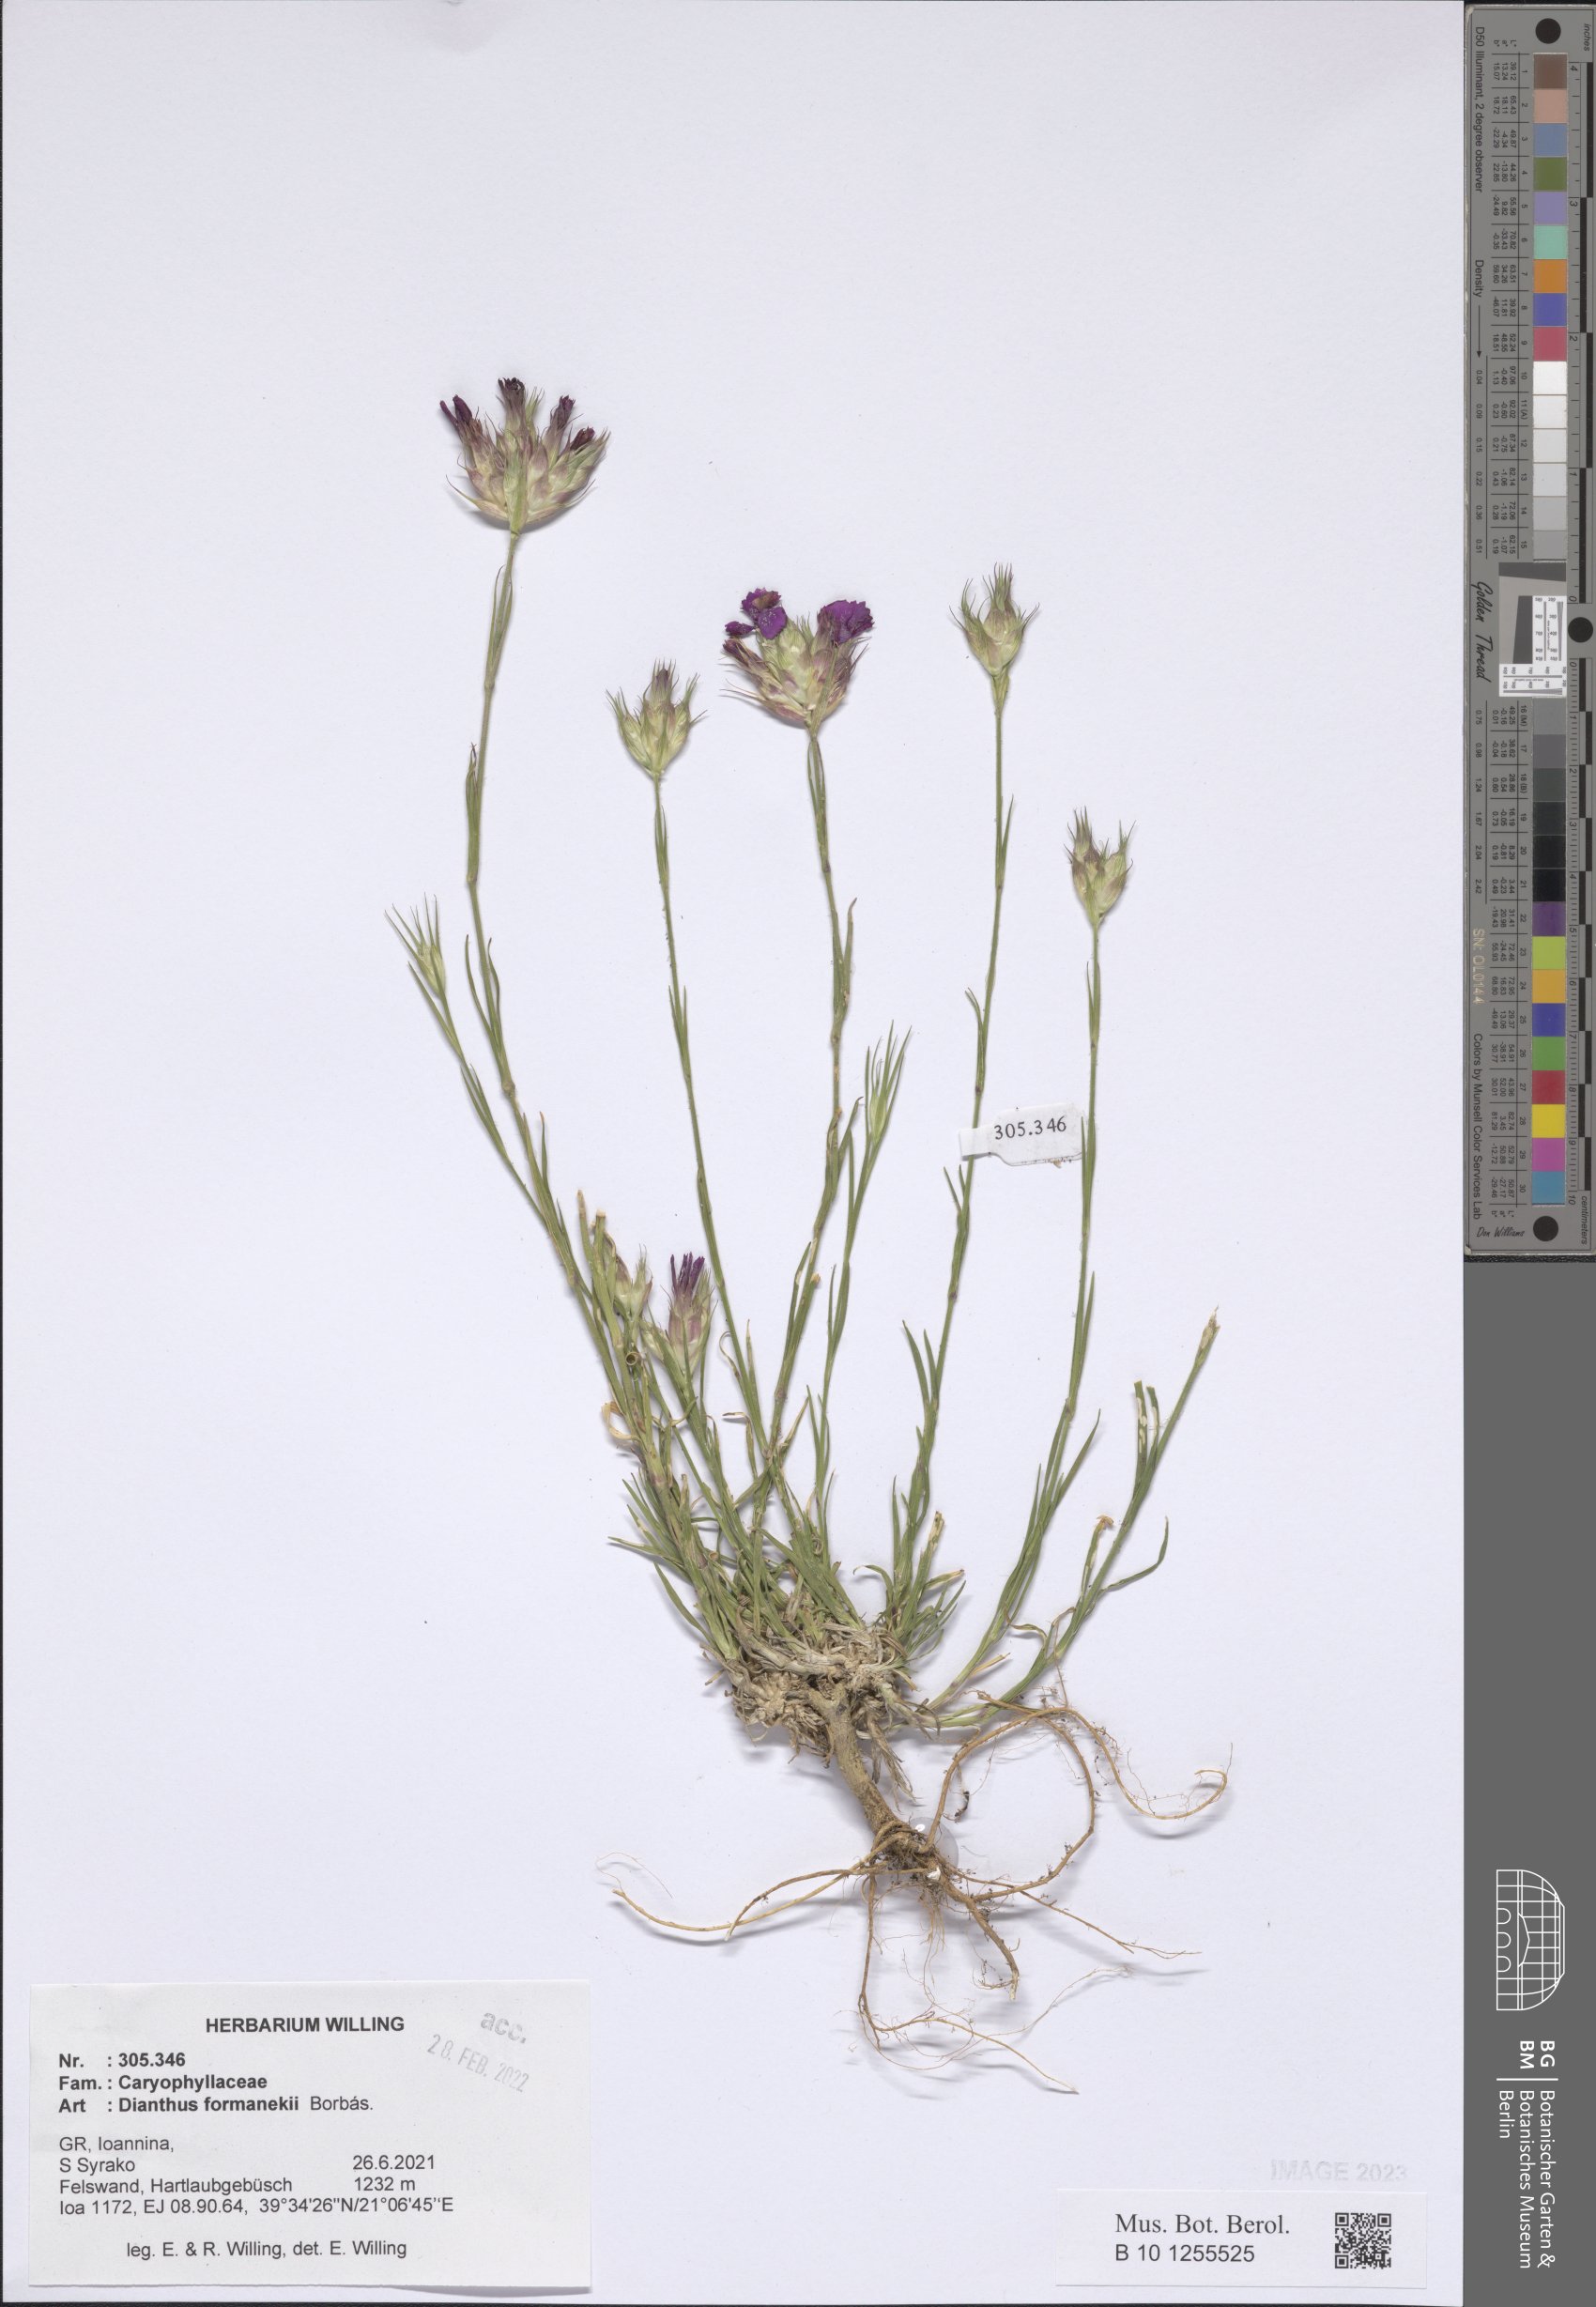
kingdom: Plantae
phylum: Tracheophyta
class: Magnoliopsida
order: Caryophyllales
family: Caryophyllaceae
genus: Dianthus
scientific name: Dianthus formanekii
